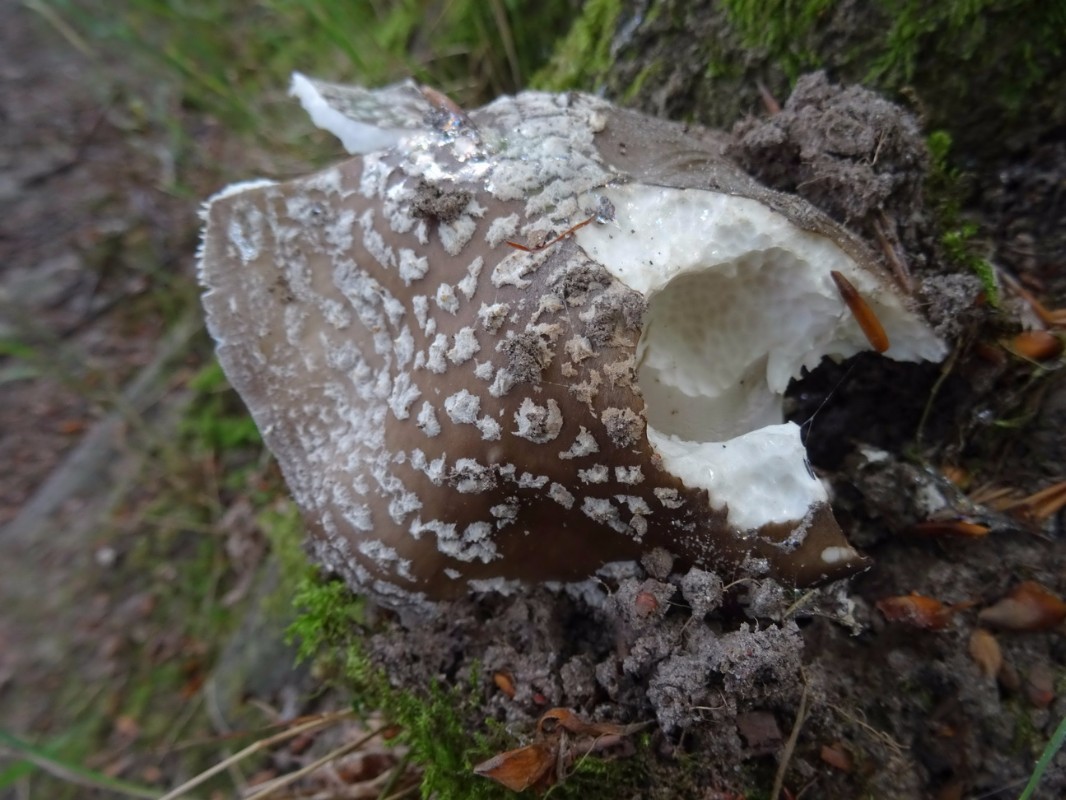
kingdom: Fungi
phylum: Basidiomycota
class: Agaricomycetes
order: Agaricales
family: Amanitaceae
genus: Amanita
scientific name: Amanita
